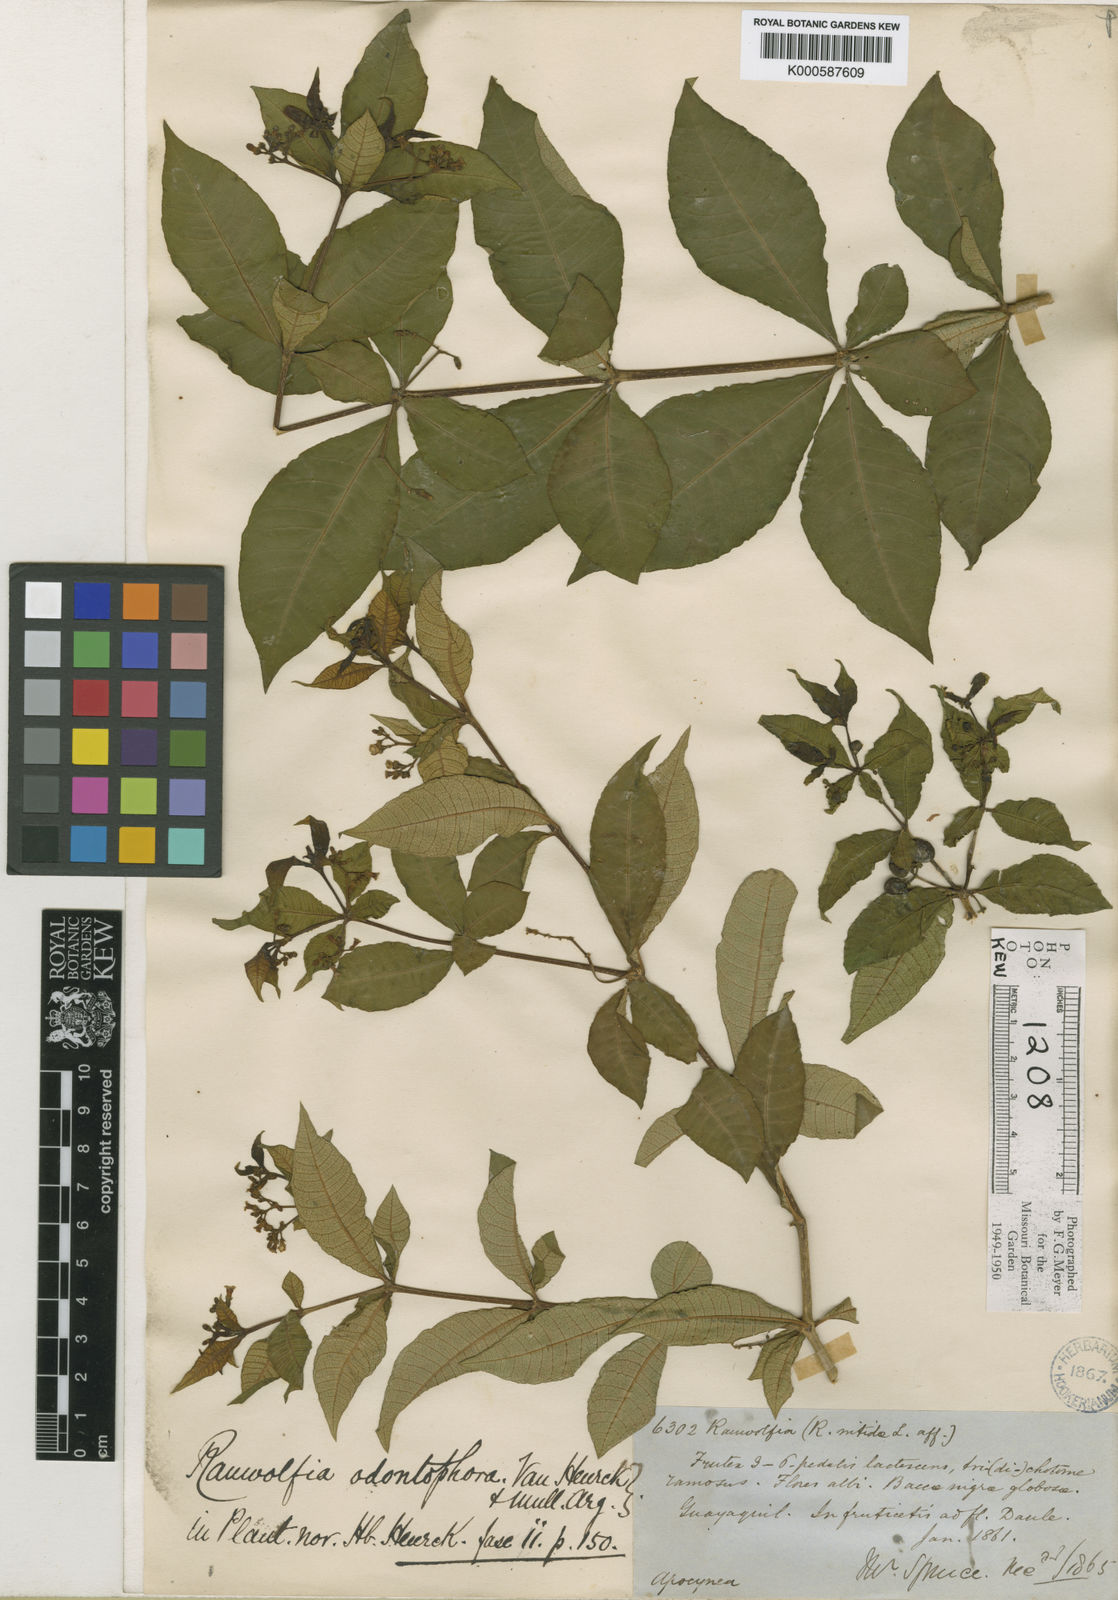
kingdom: Plantae
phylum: Tracheophyta
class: Magnoliopsida
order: Gentianales
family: Apocynaceae
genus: Rauvolfia
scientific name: Rauvolfia
